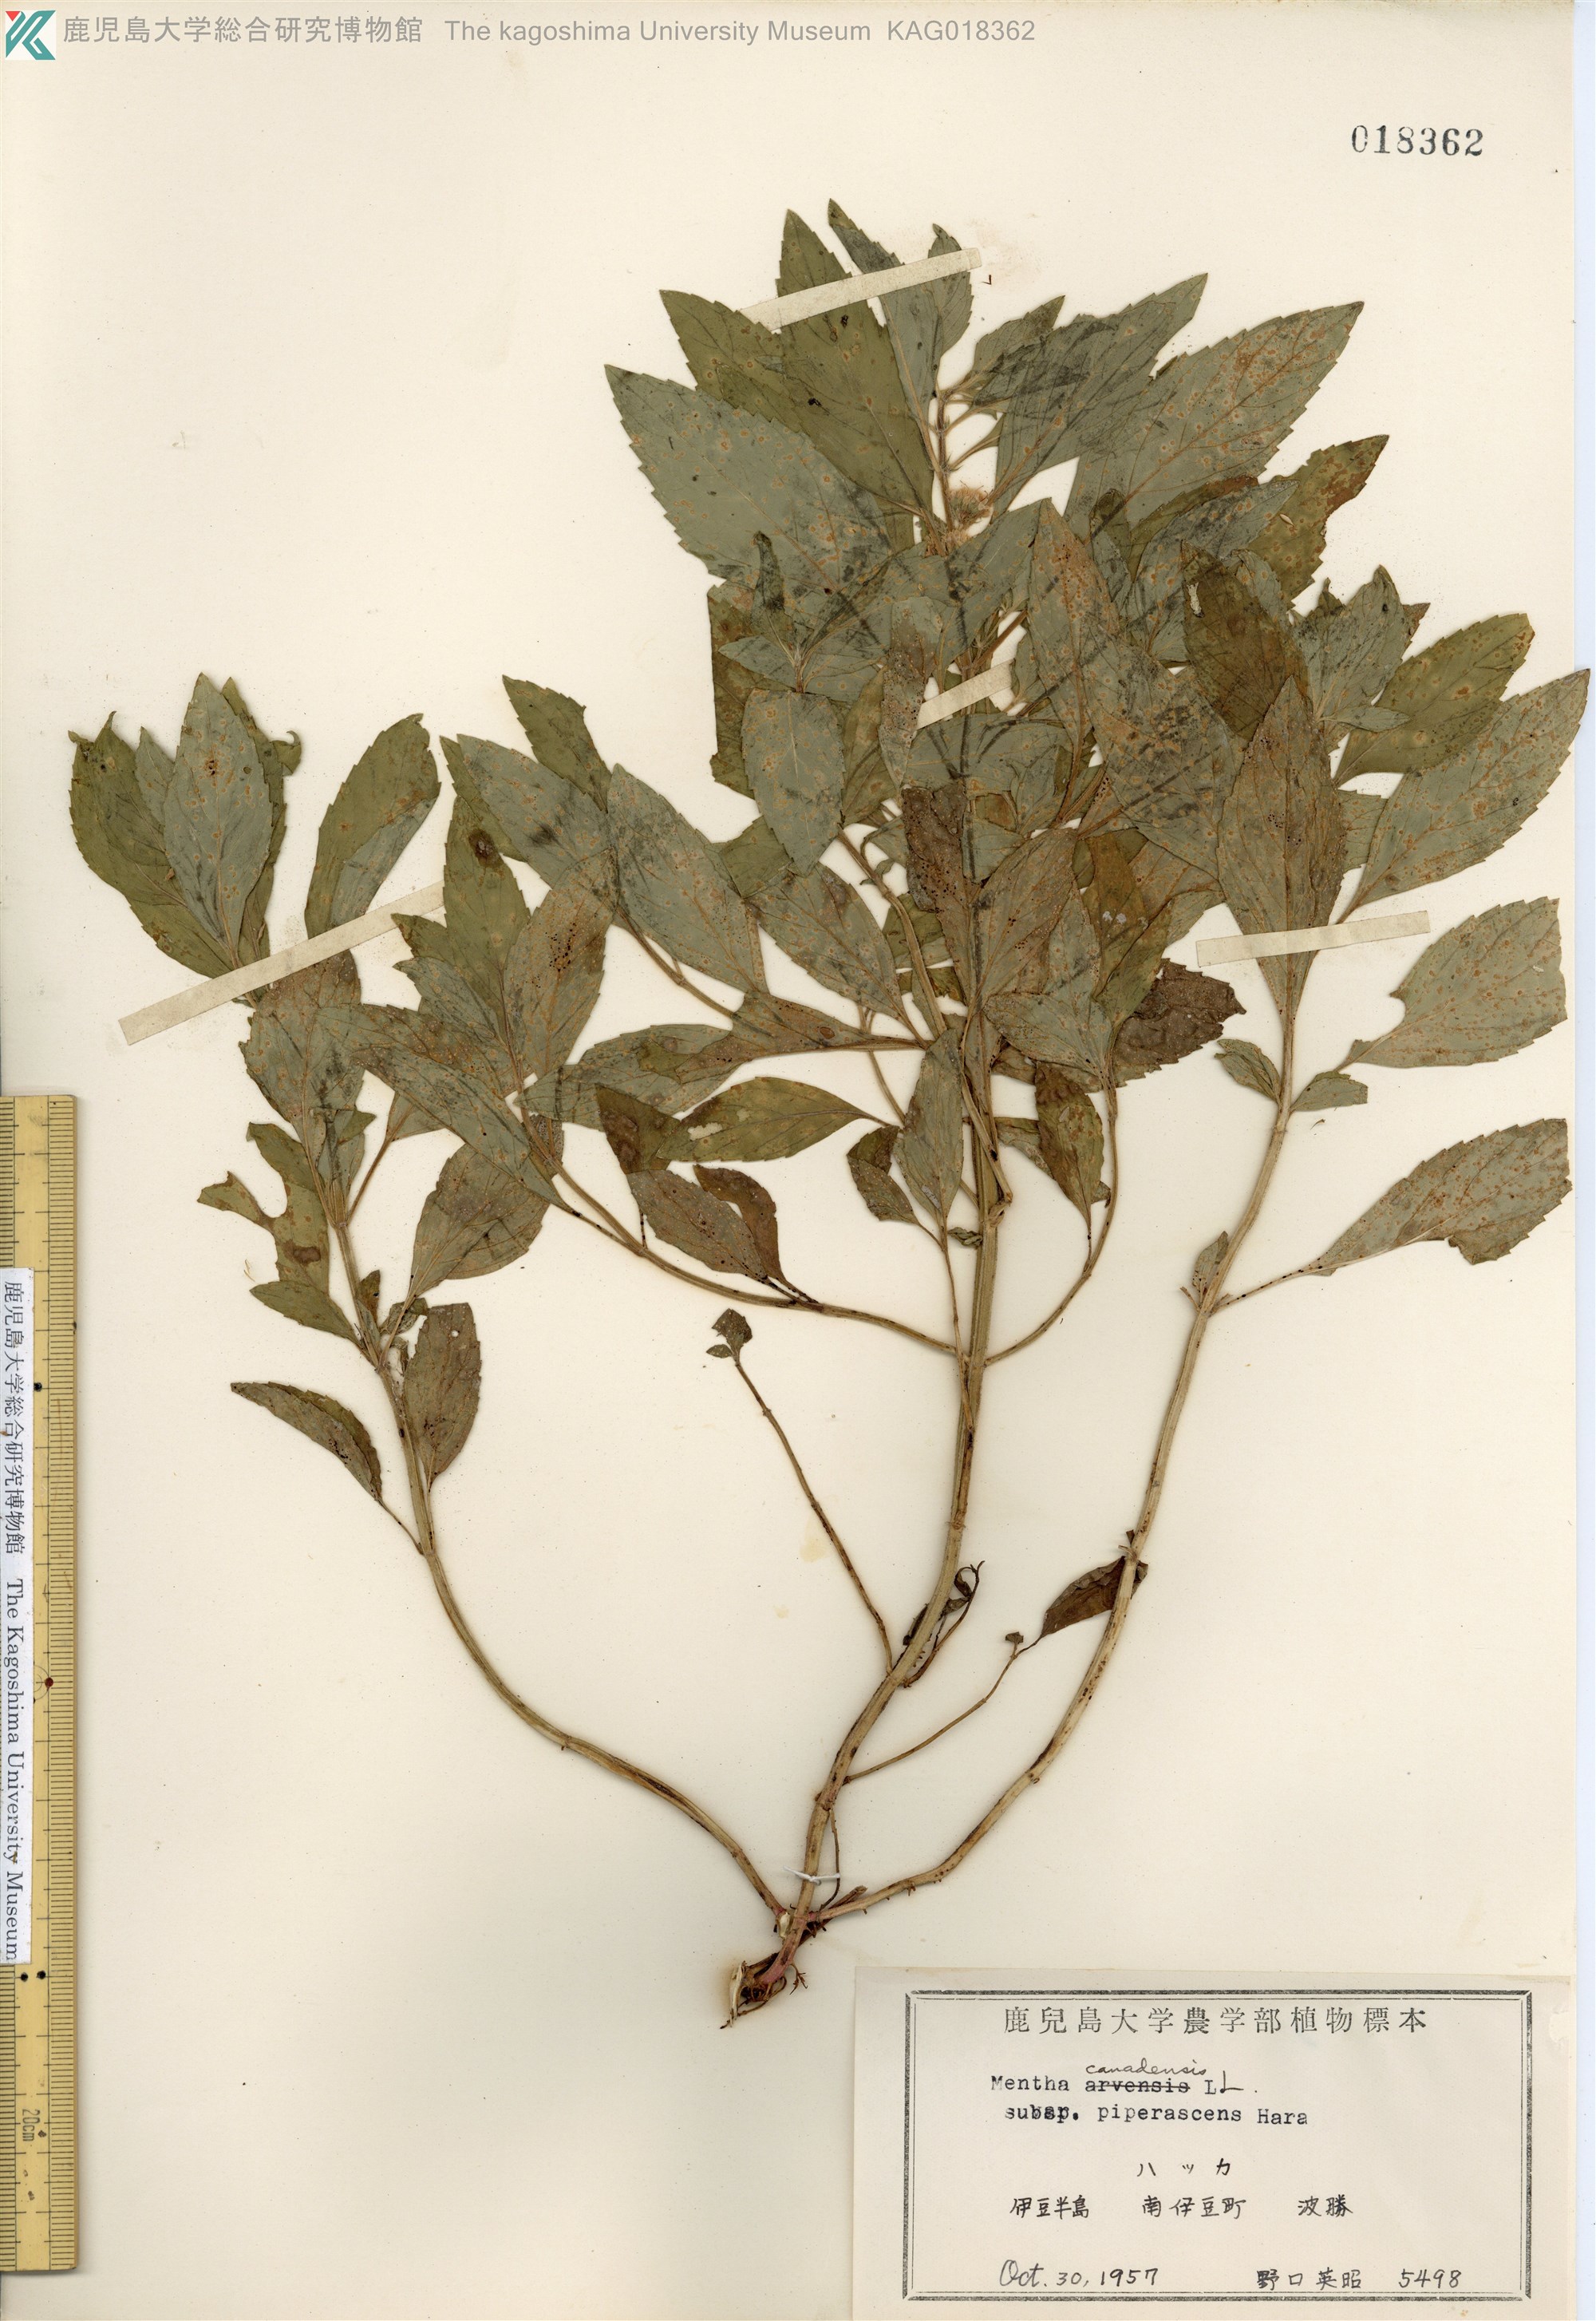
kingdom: Plantae
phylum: Tracheophyta
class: Magnoliopsida
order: Lamiales
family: Lamiaceae
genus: Mentha
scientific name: Mentha canadensis
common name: ハッカ
